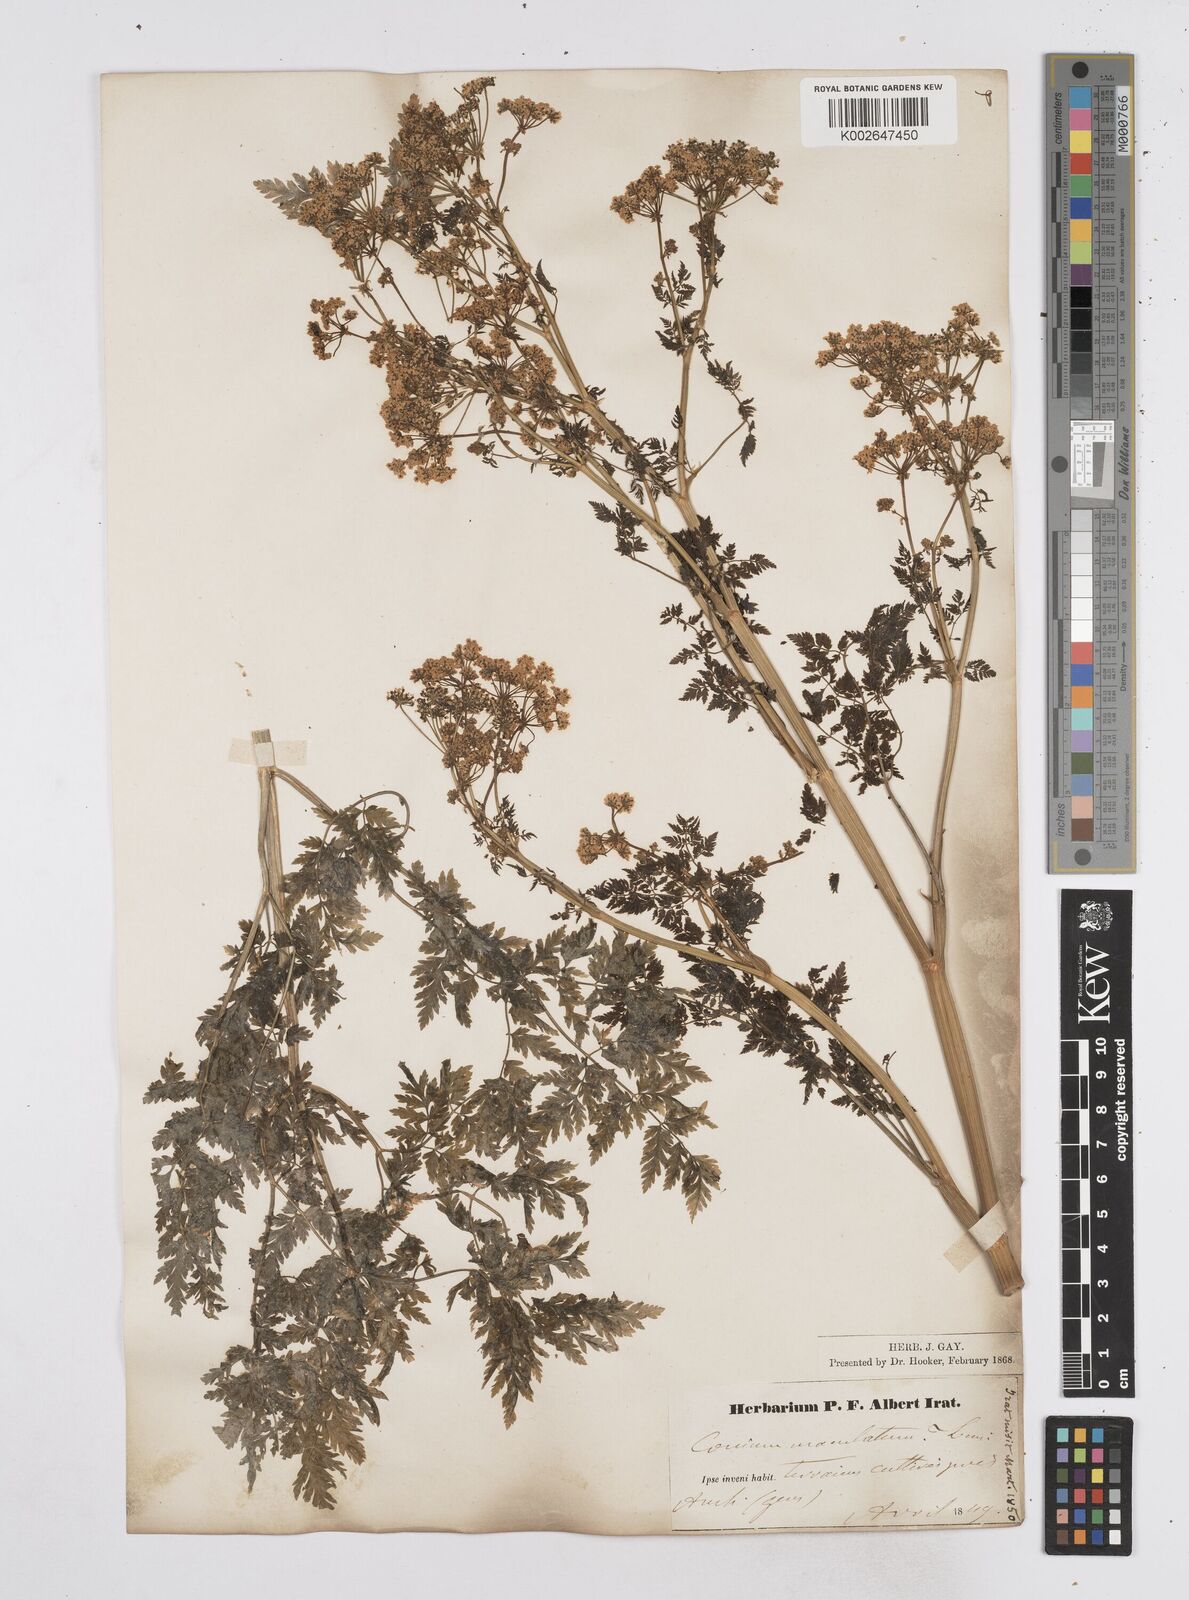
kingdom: Plantae
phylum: Tracheophyta
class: Magnoliopsida
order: Apiales
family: Apiaceae
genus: Conium
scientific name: Conium maculatum
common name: Hemlock
